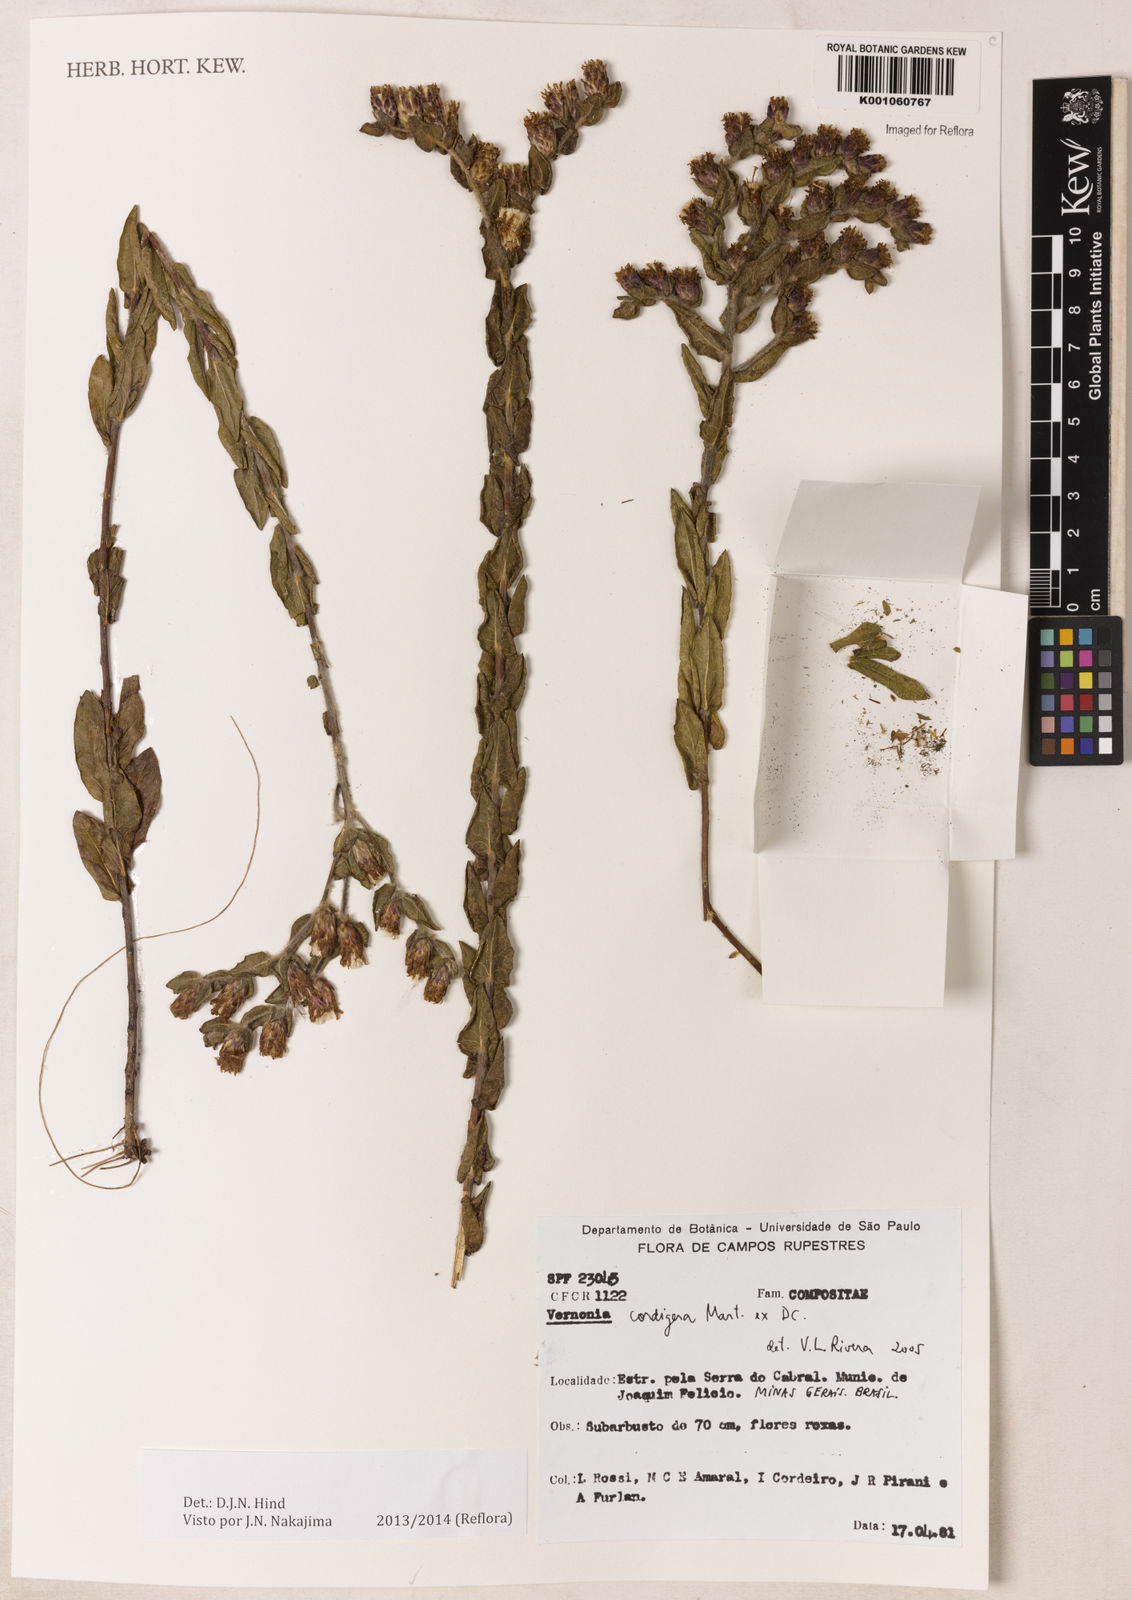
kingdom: Plantae
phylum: Tracheophyta
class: Magnoliopsida
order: Asterales
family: Asteraceae
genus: Lepidaploa
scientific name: Lepidaploa lilacina
